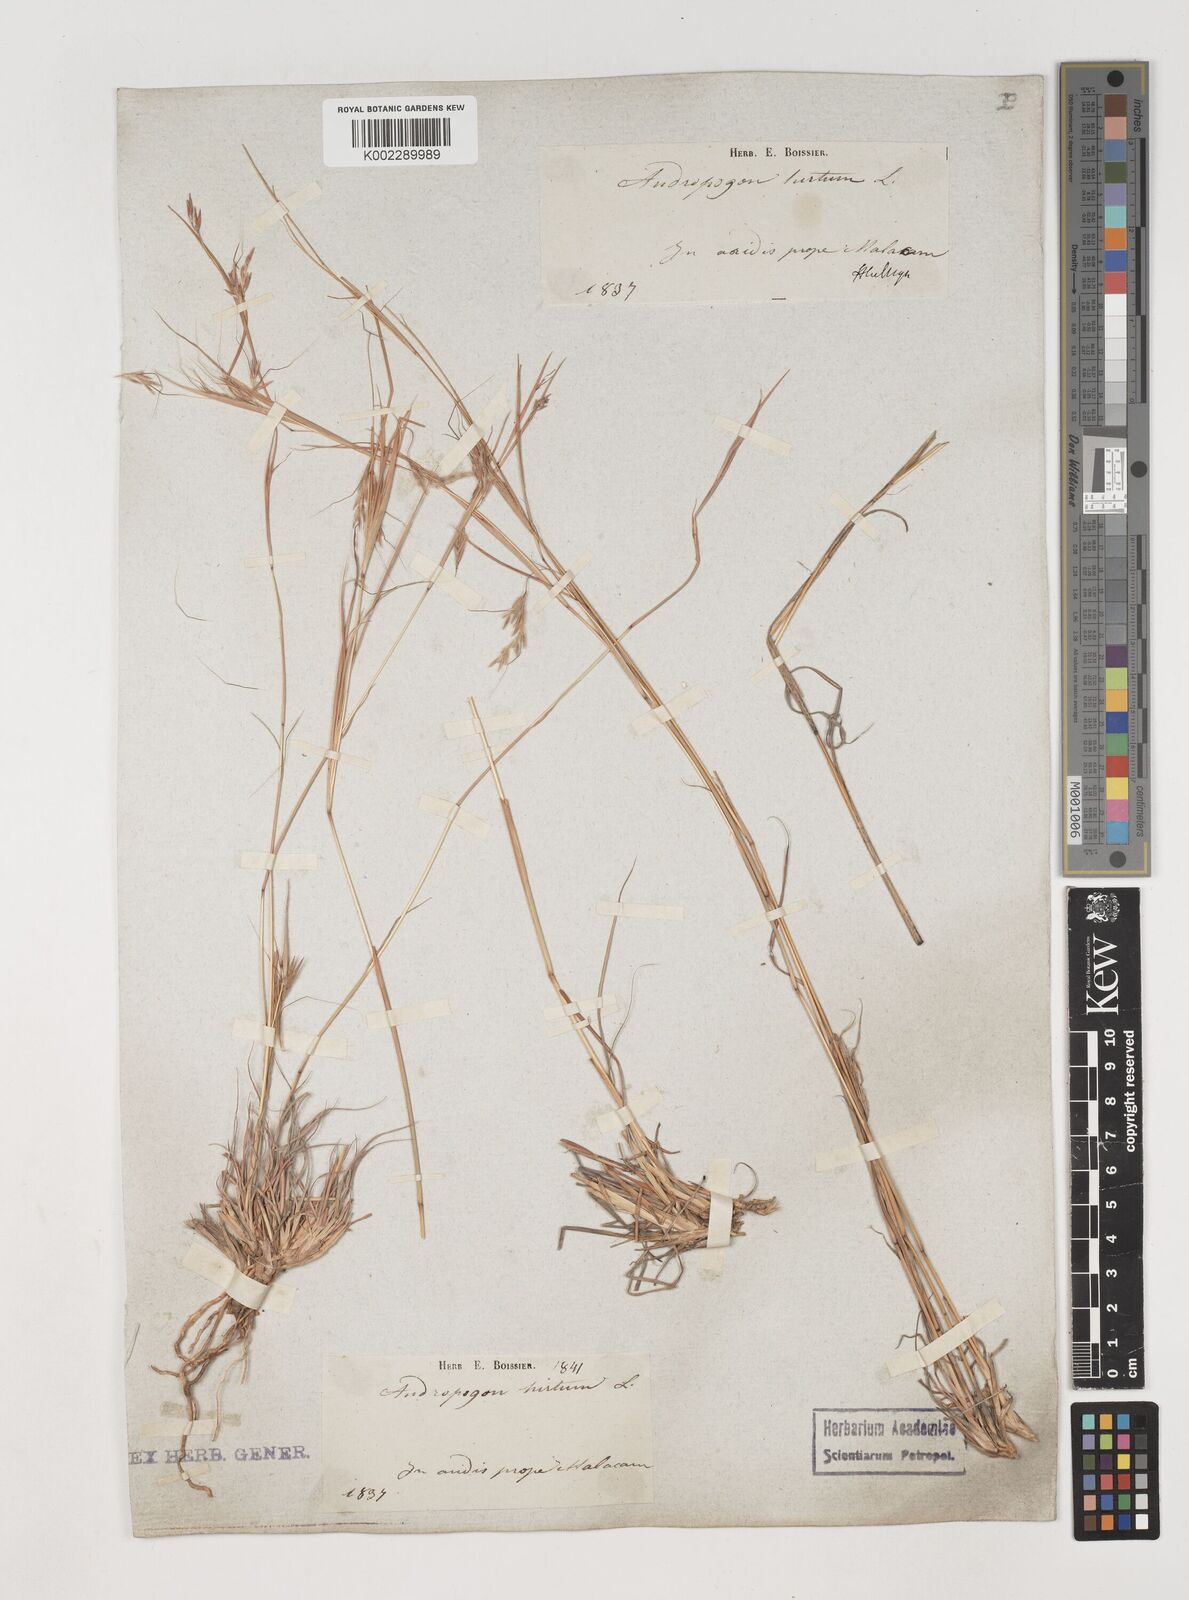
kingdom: Plantae
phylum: Tracheophyta
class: Liliopsida
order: Poales
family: Poaceae
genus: Hyparrhenia
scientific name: Hyparrhenia hirta
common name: Thatching grass
